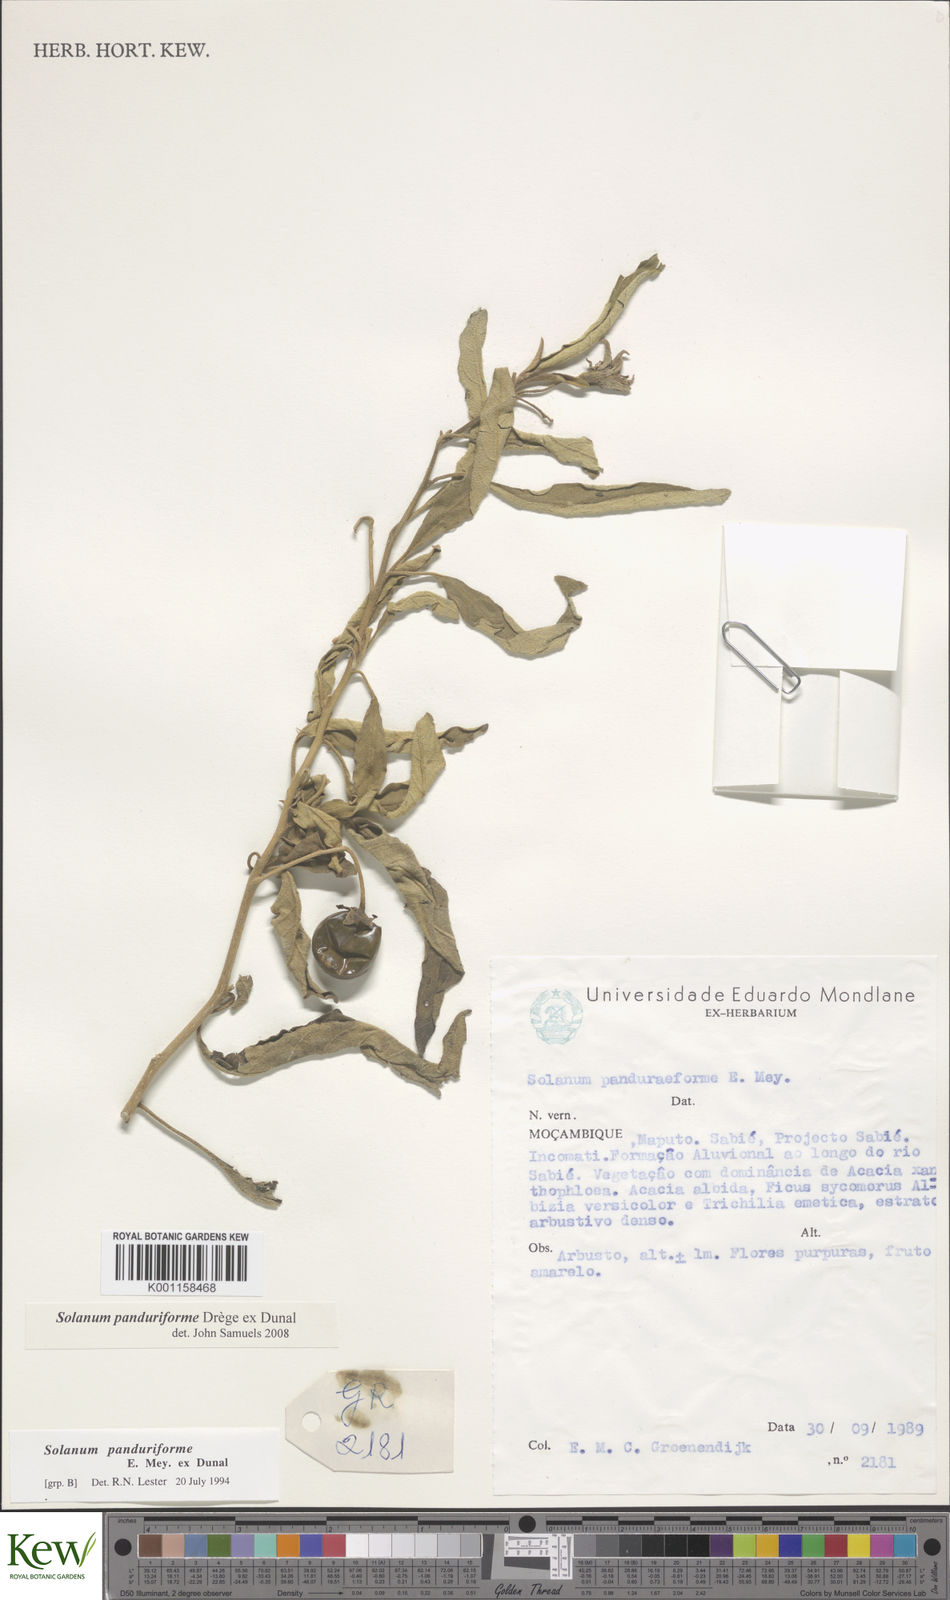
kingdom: Plantae
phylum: Tracheophyta
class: Magnoliopsida
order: Solanales
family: Solanaceae
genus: Solanum
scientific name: Solanum campylacanthum
